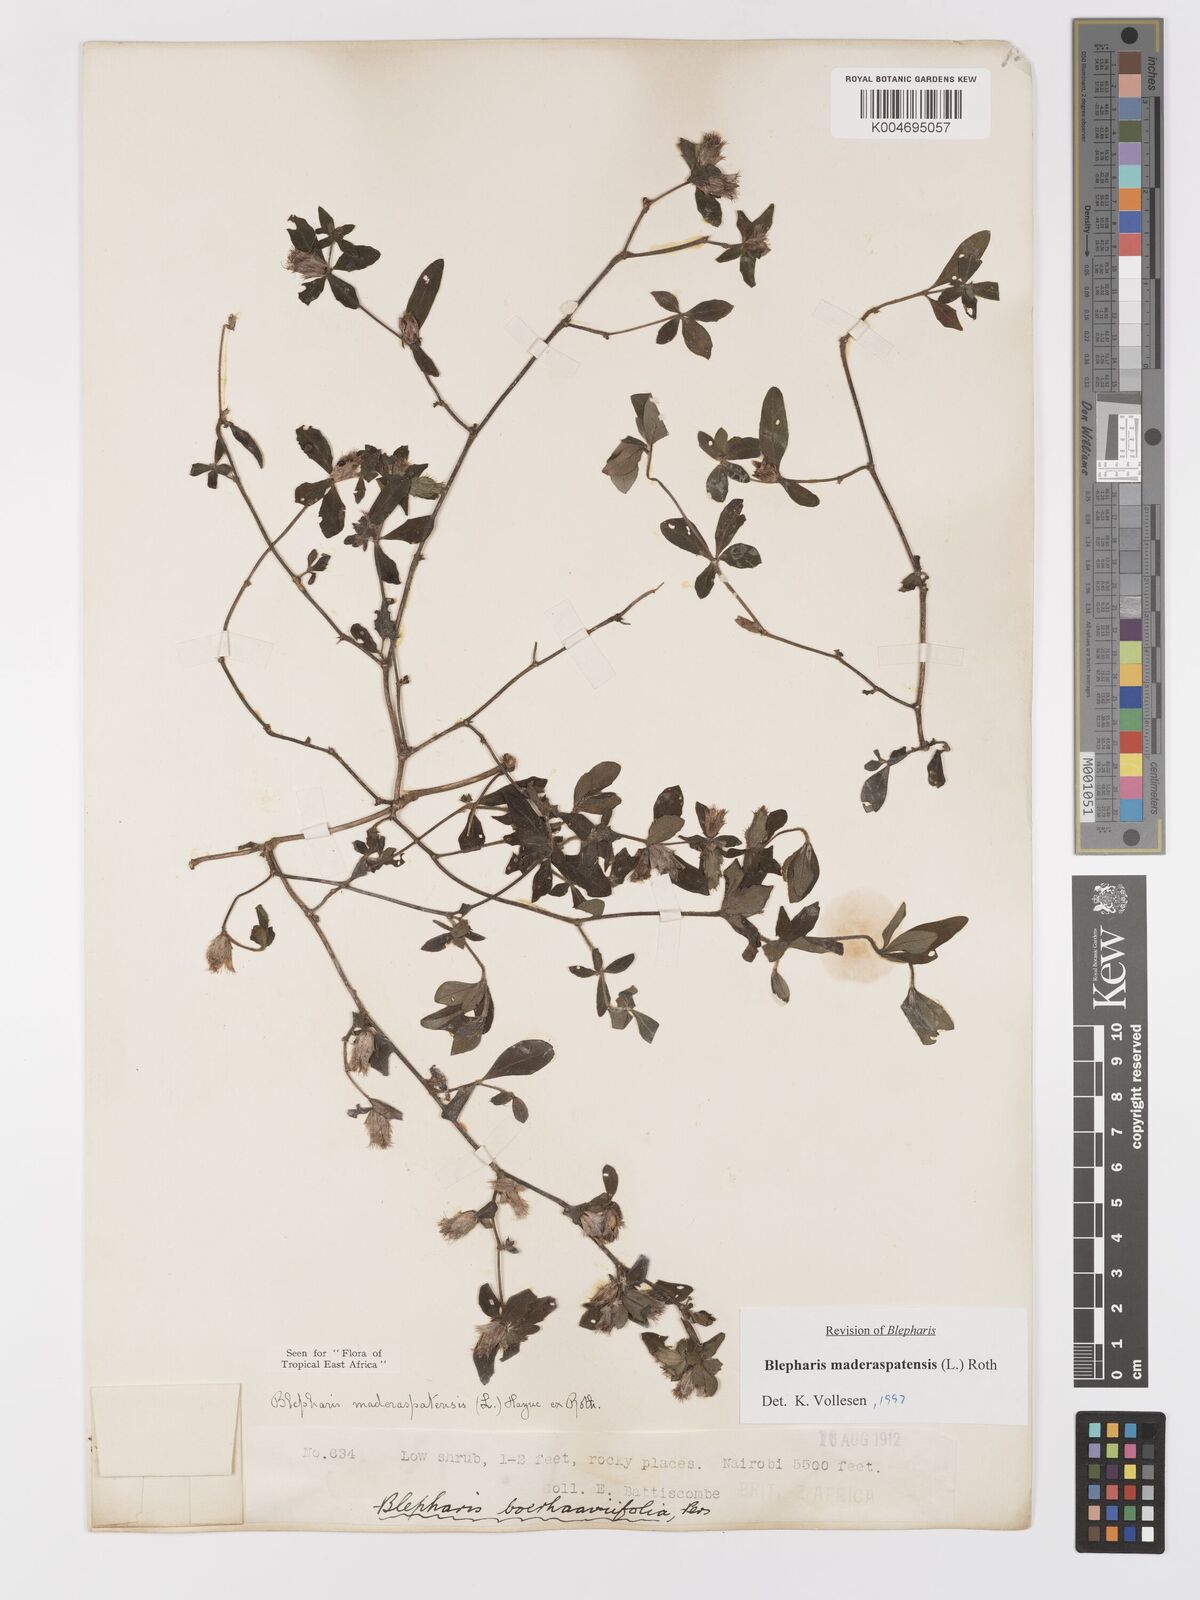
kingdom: Plantae
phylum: Tracheophyta
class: Magnoliopsida
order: Lamiales
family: Acanthaceae
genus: Blepharis
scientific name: Blepharis maderaspatensis
